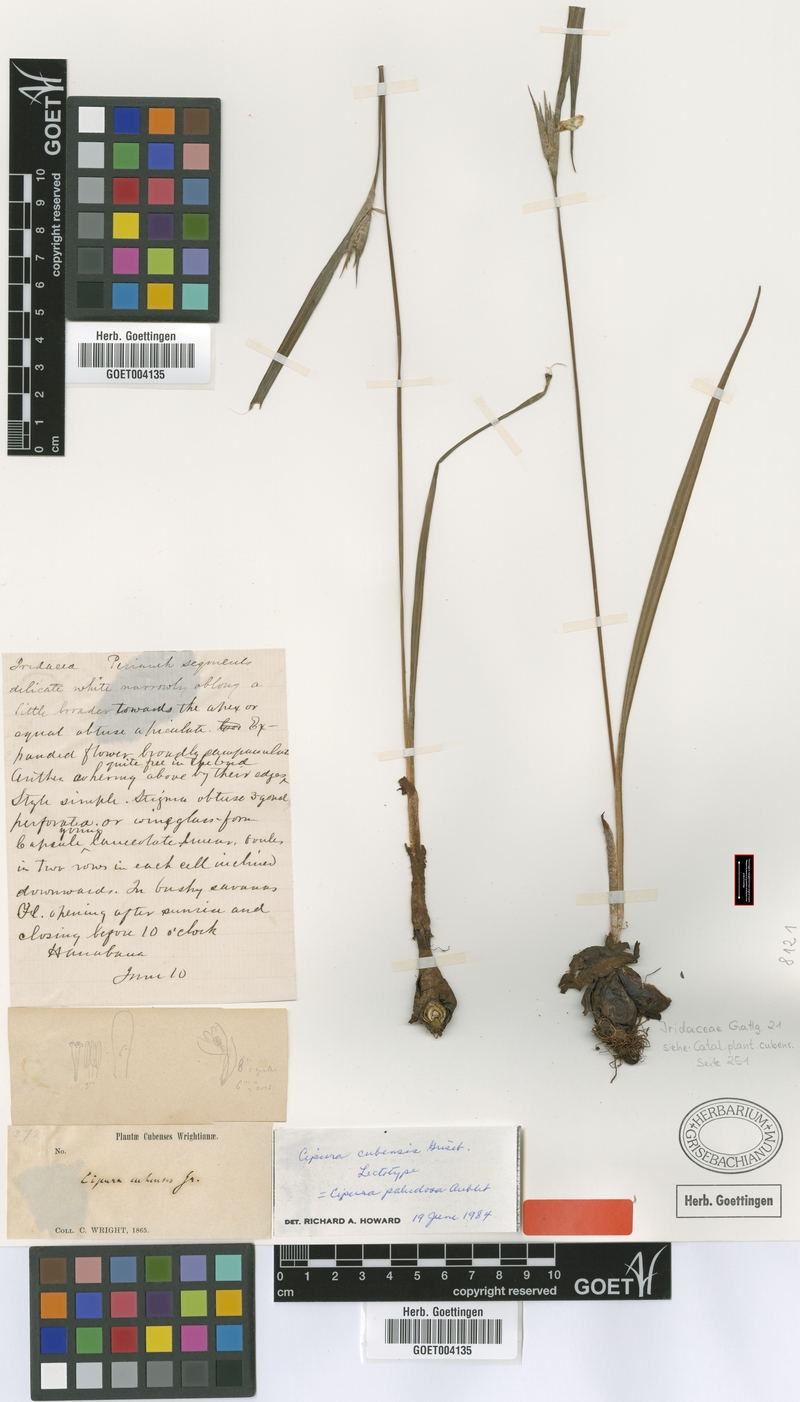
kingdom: Plantae
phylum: Tracheophyta
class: Liliopsida
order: Asparagales
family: Iridaceae
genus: Cipura
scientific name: Cipura paludosa
